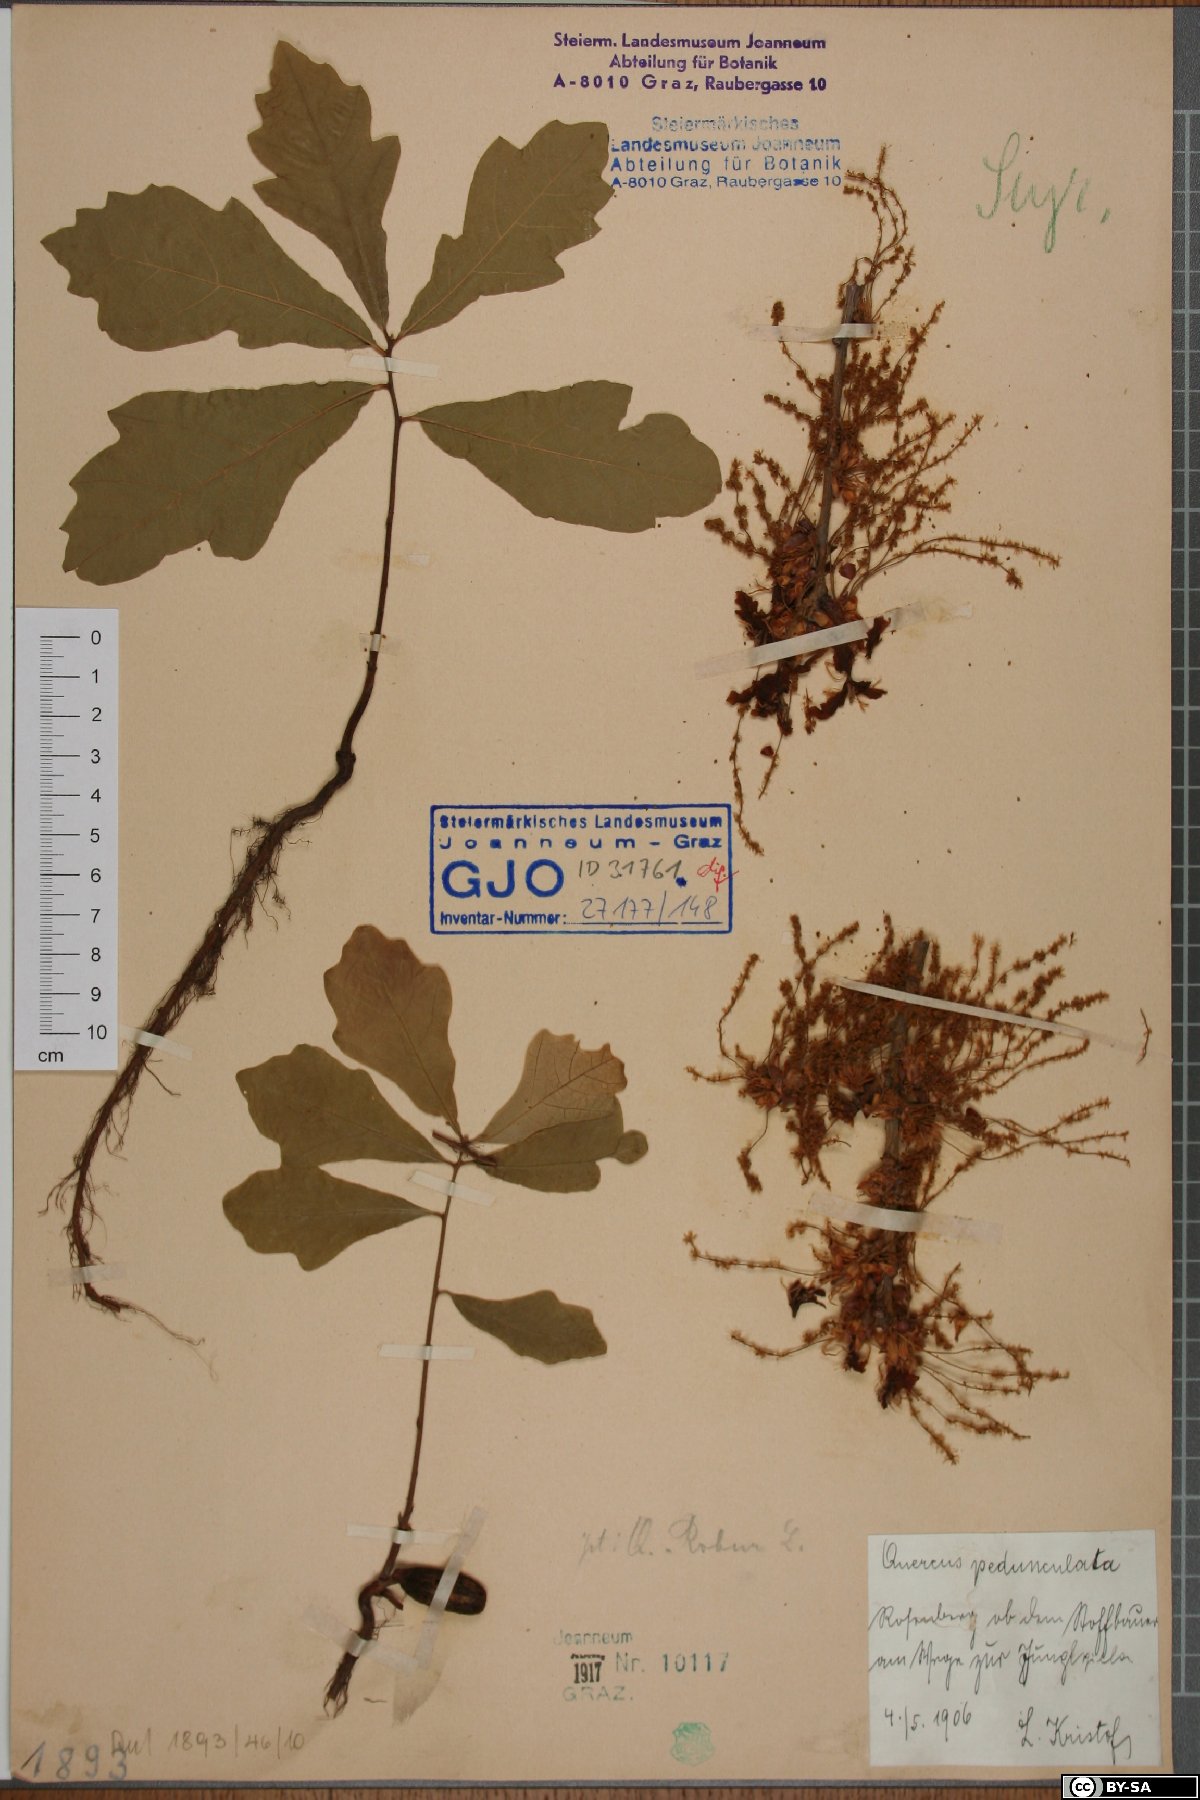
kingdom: Plantae
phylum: Tracheophyta
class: Magnoliopsida
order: Fagales
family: Fagaceae
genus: Quercus
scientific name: Quercus robur
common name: Pedunculate oak
